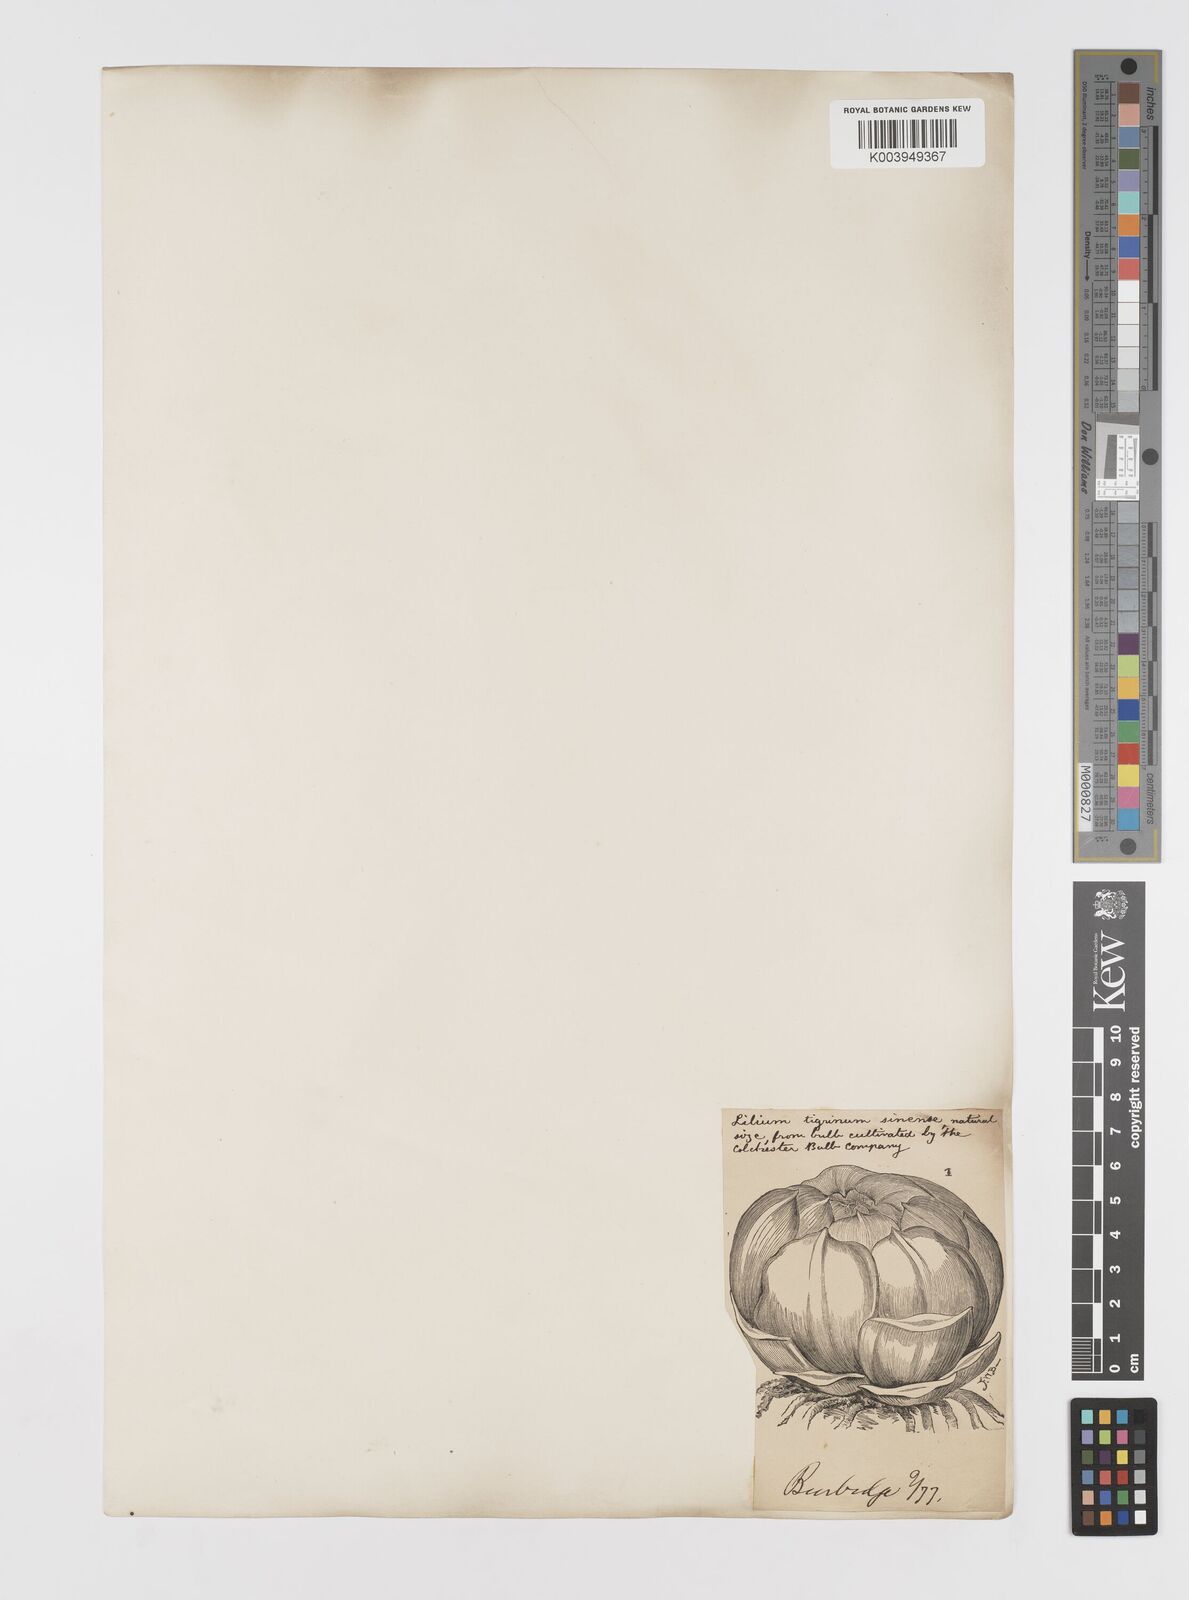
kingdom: Plantae
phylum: Tracheophyta
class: Liliopsida
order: Liliales
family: Liliaceae
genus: Lilium
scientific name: Lilium lancifolium
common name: Tiger lily
